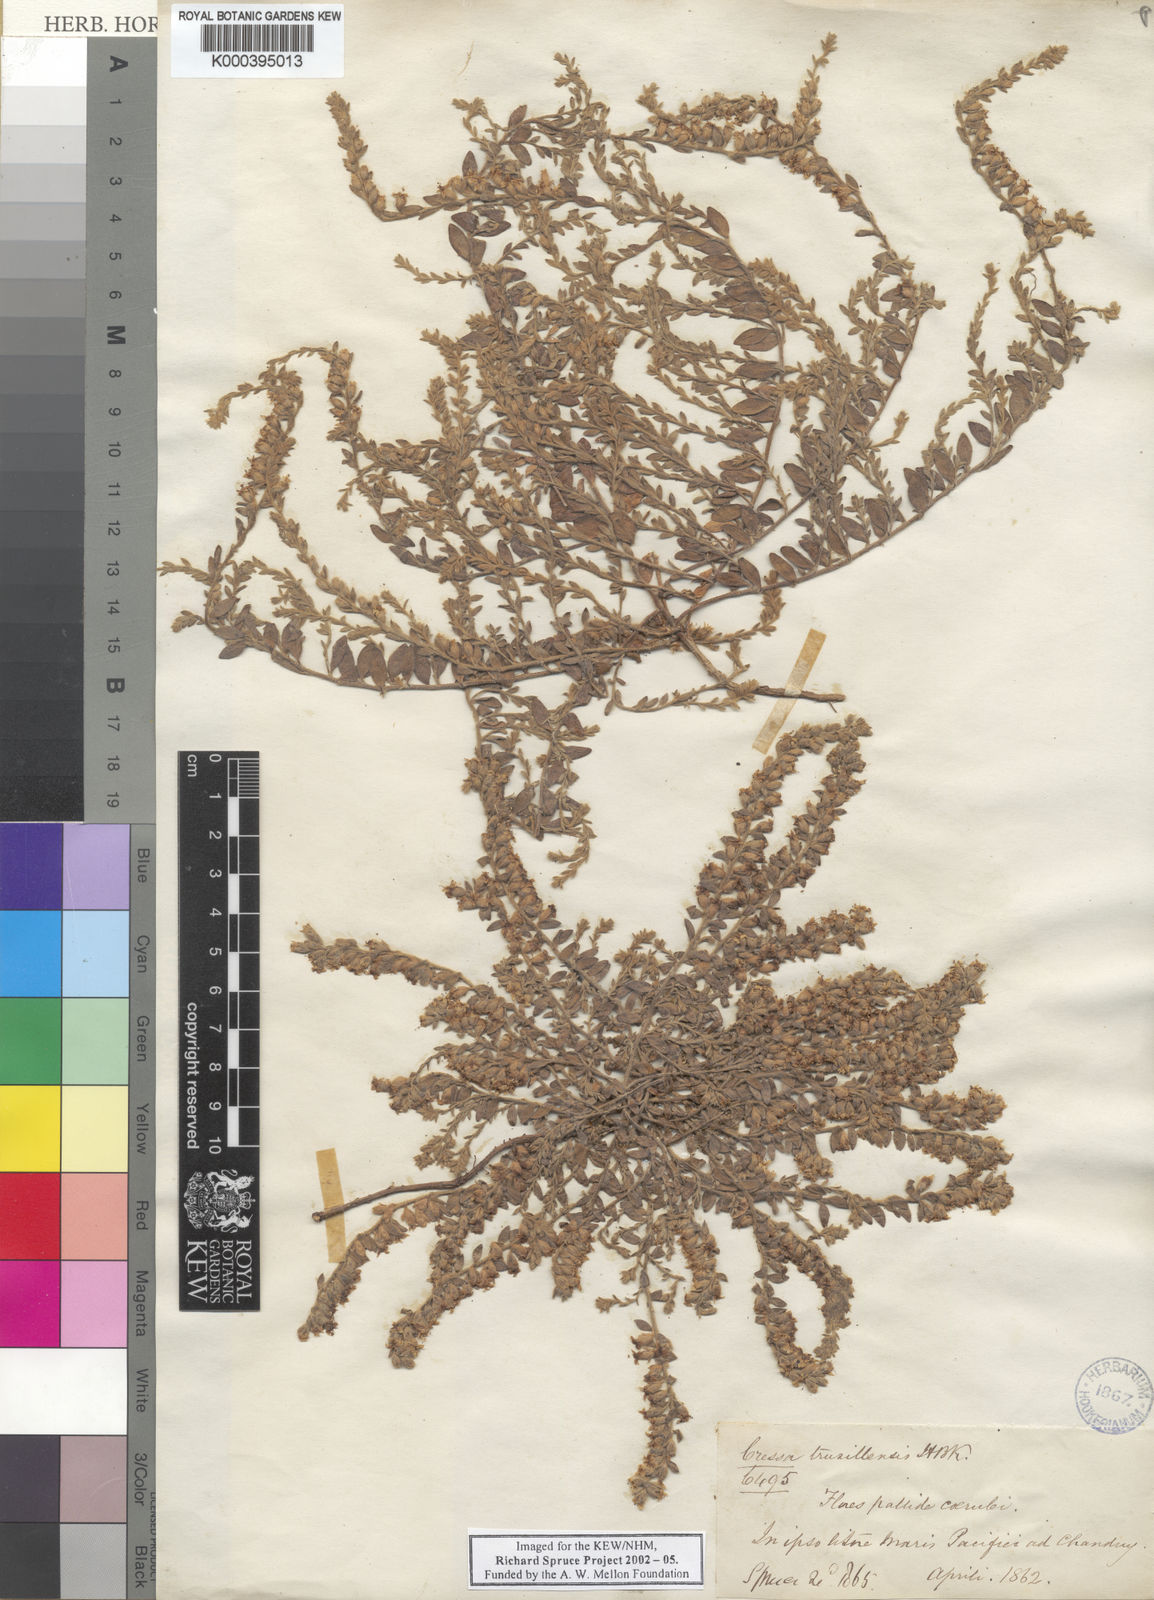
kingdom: Plantae
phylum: Tracheophyta
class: Magnoliopsida
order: Solanales
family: Convolvulaceae
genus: Cressa
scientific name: Cressa truxillensis
